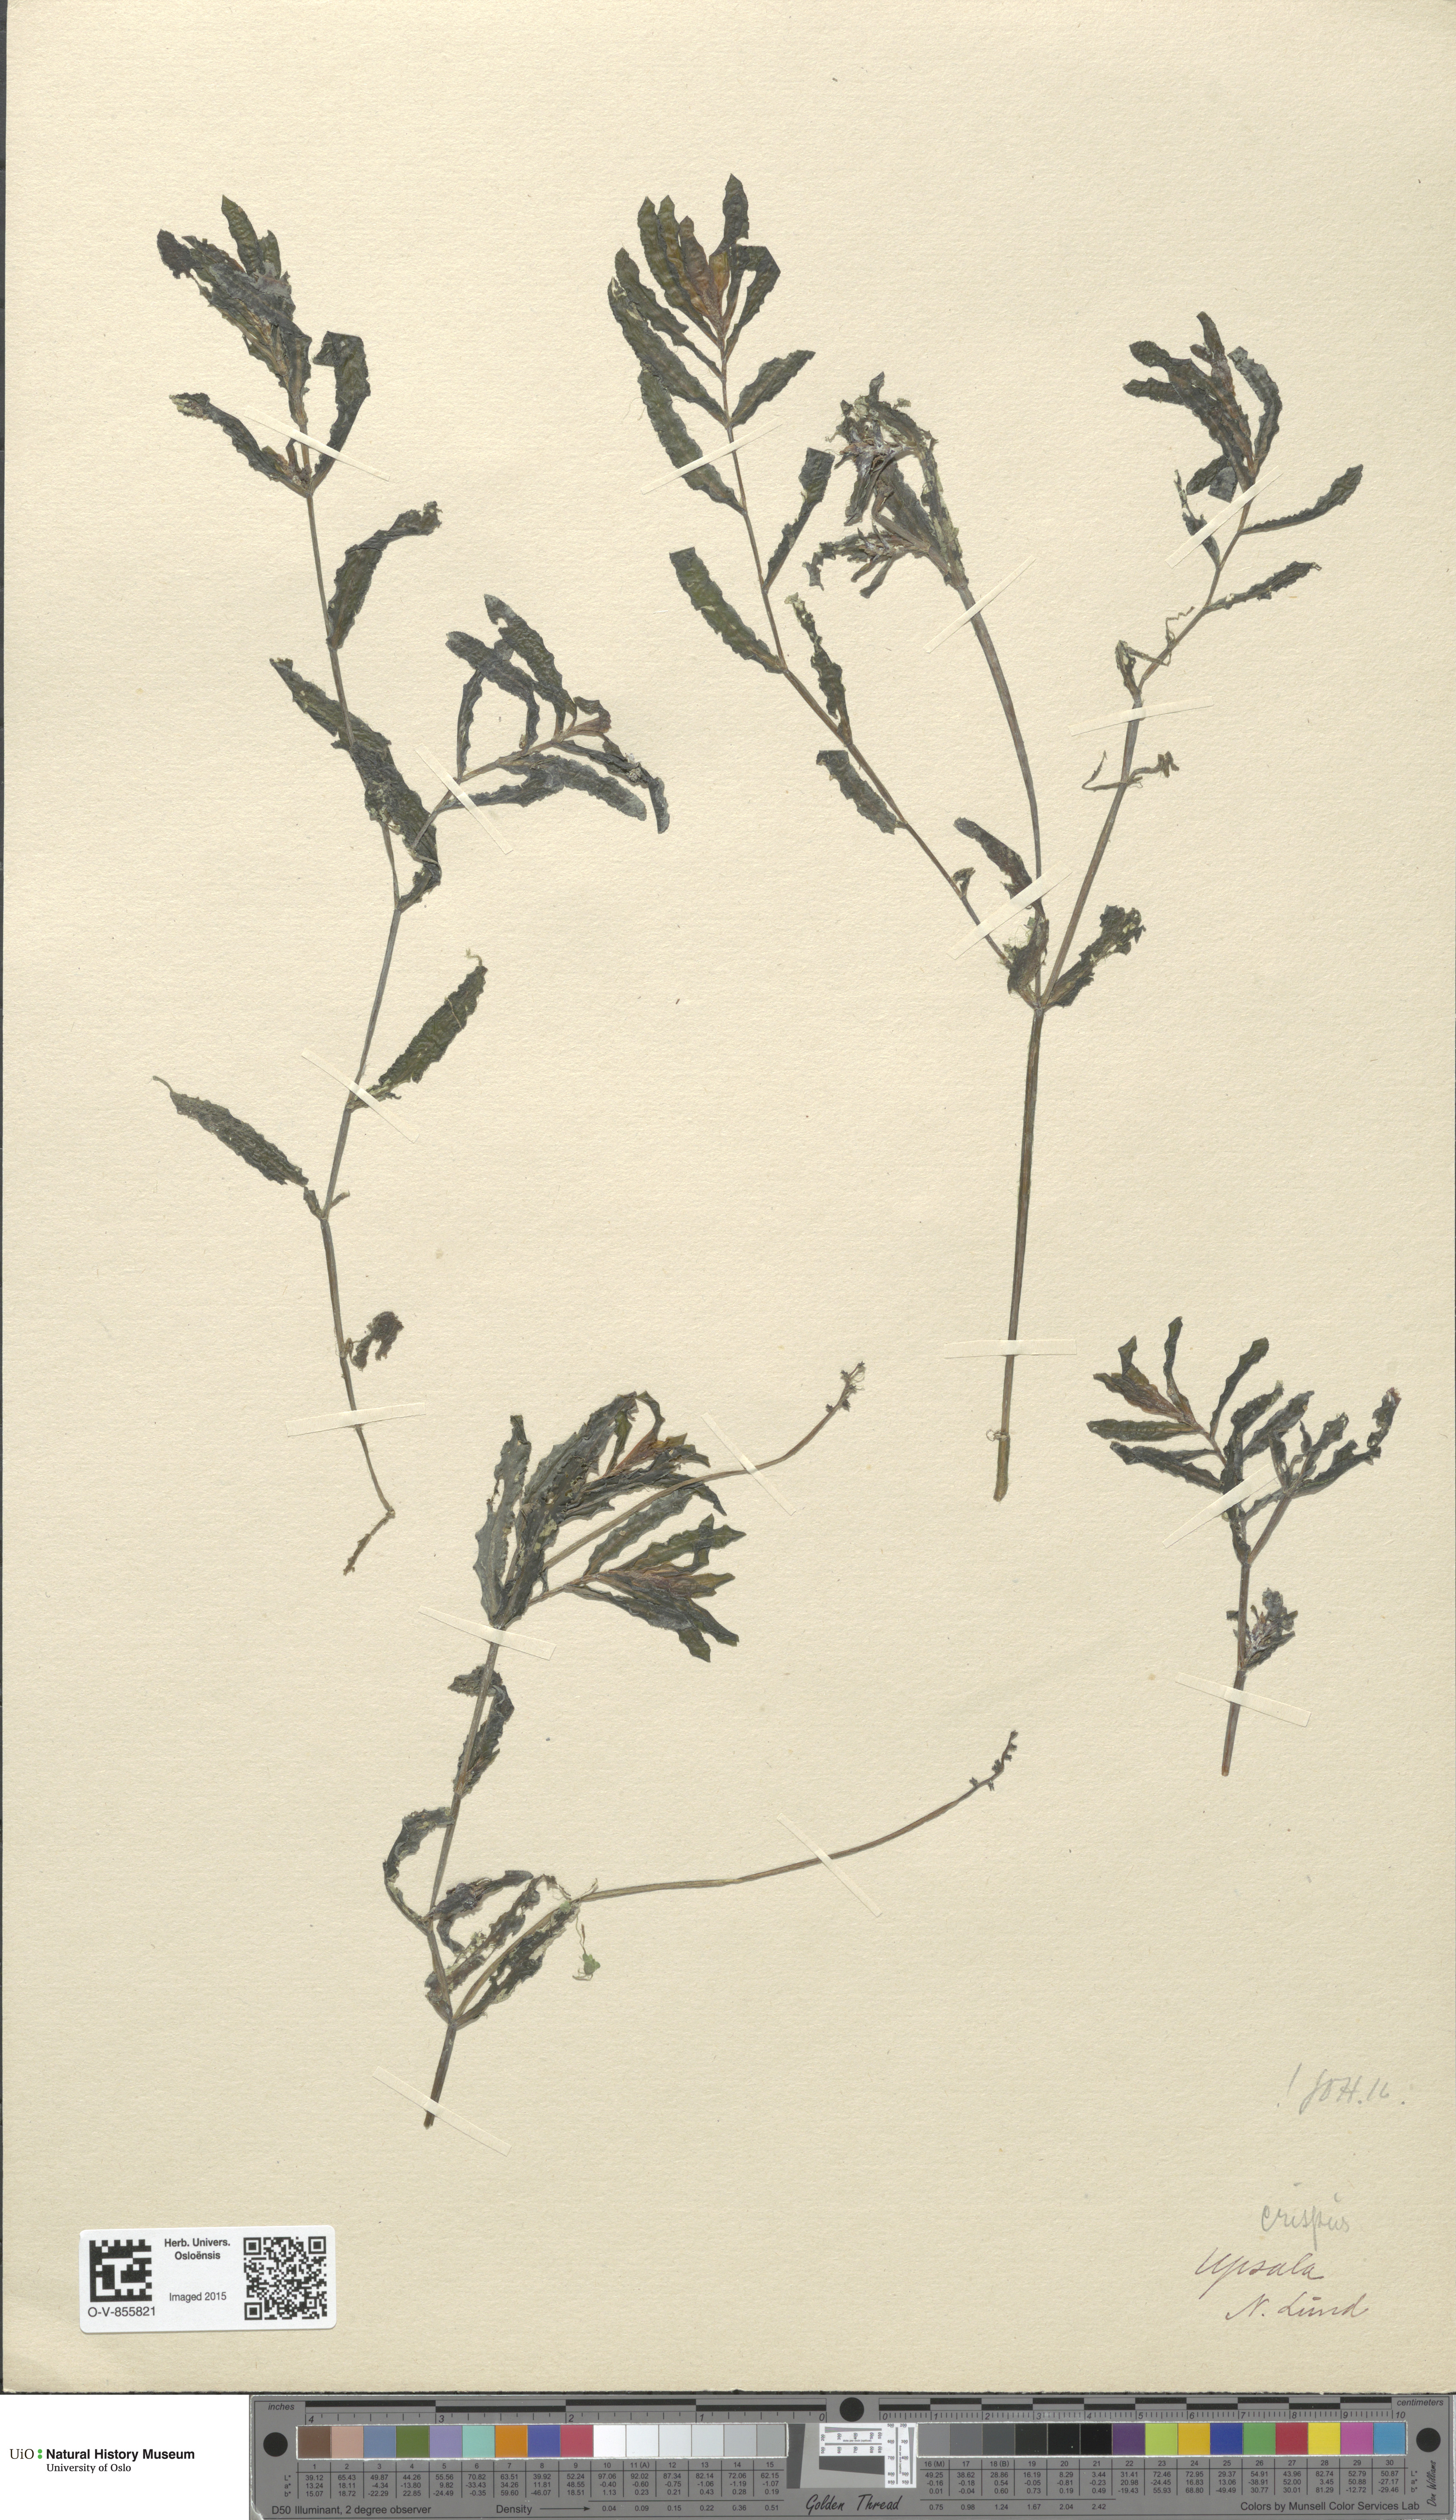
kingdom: Plantae
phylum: Tracheophyta
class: Liliopsida
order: Alismatales
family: Potamogetonaceae
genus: Potamogeton
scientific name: Potamogeton crispus
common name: Curled pondweed
